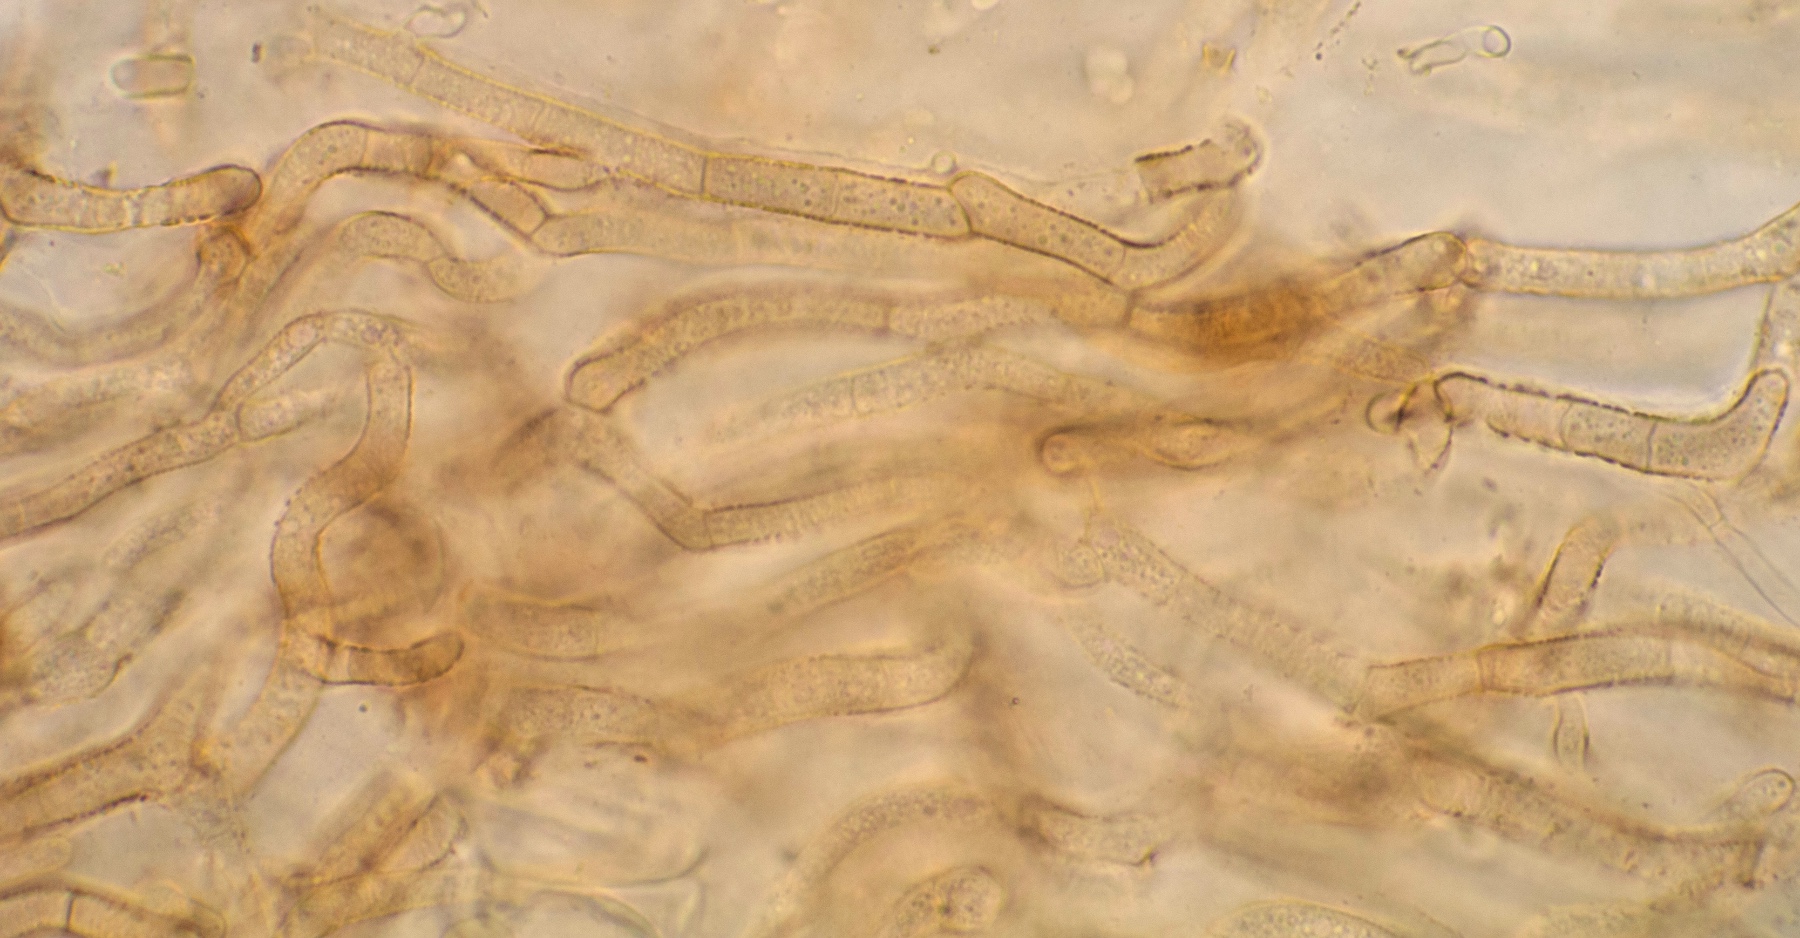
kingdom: Fungi
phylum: Ascomycota
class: Leotiomycetes
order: Helotiales
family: Rutstroemiaceae
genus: Rutstroemia
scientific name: Rutstroemia
